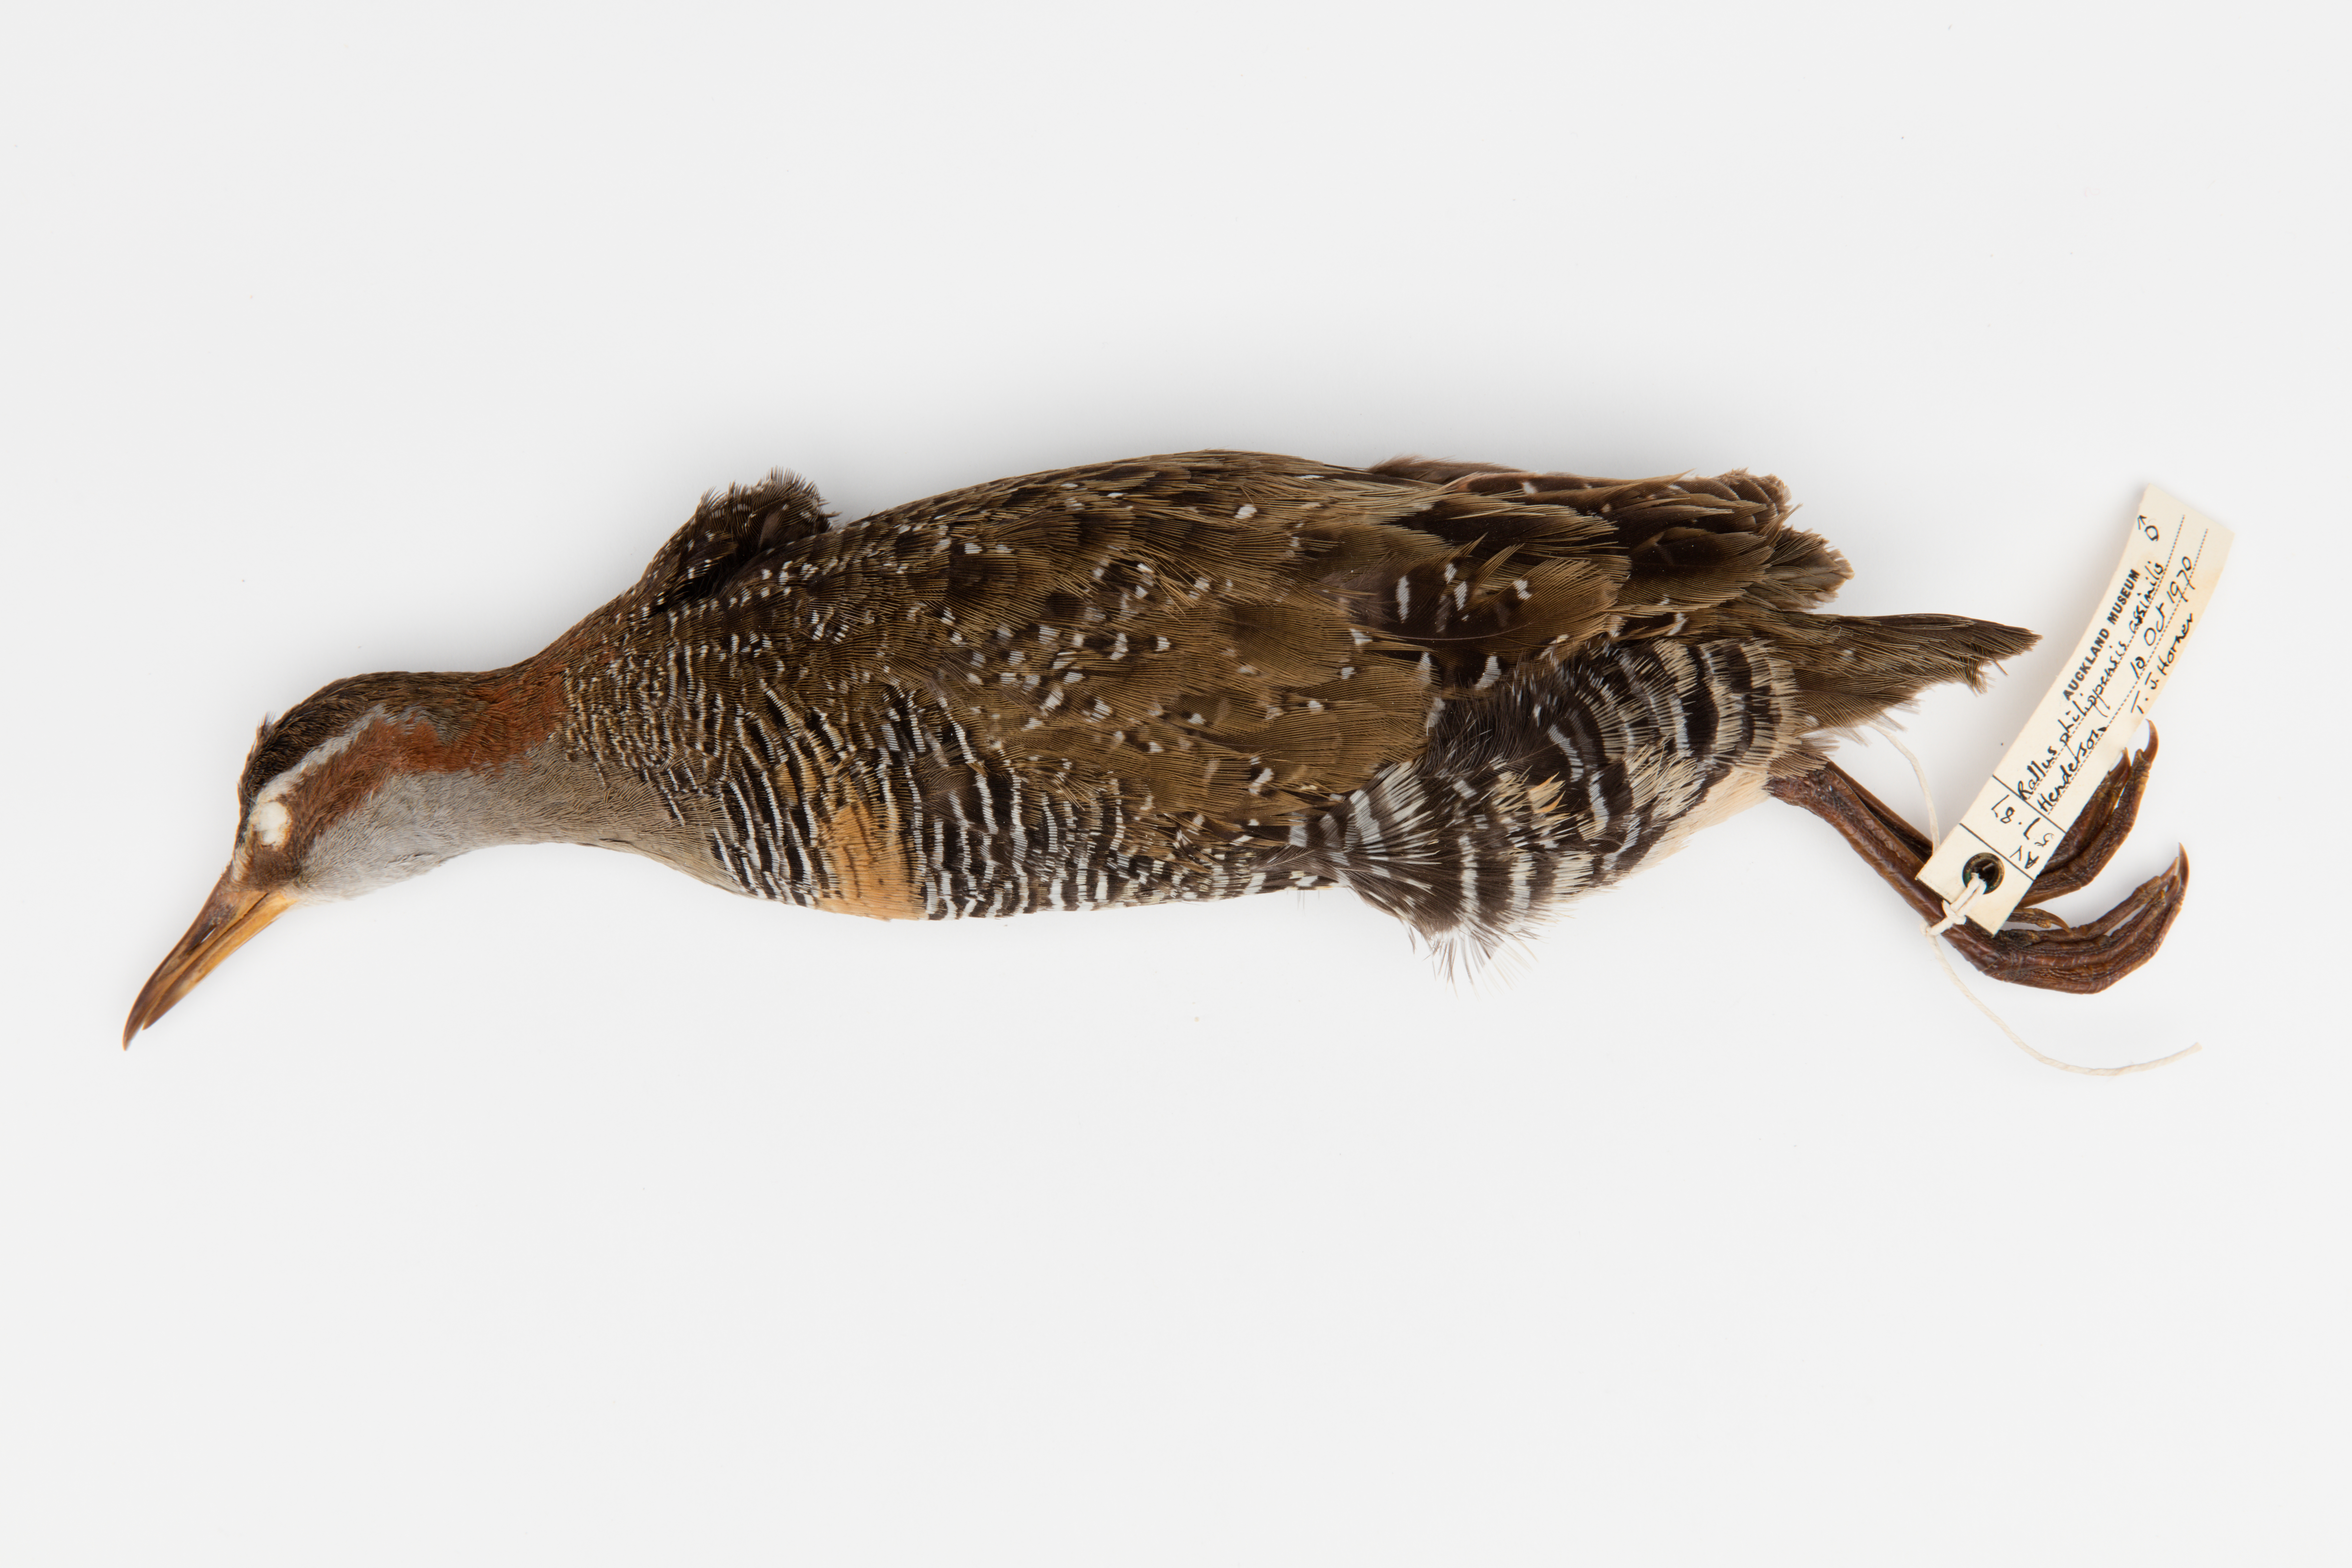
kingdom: Animalia
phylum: Chordata
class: Aves
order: Gruiformes
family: Rallidae
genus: Gallirallus
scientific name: Gallirallus philippensis
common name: Buff-banded rail
